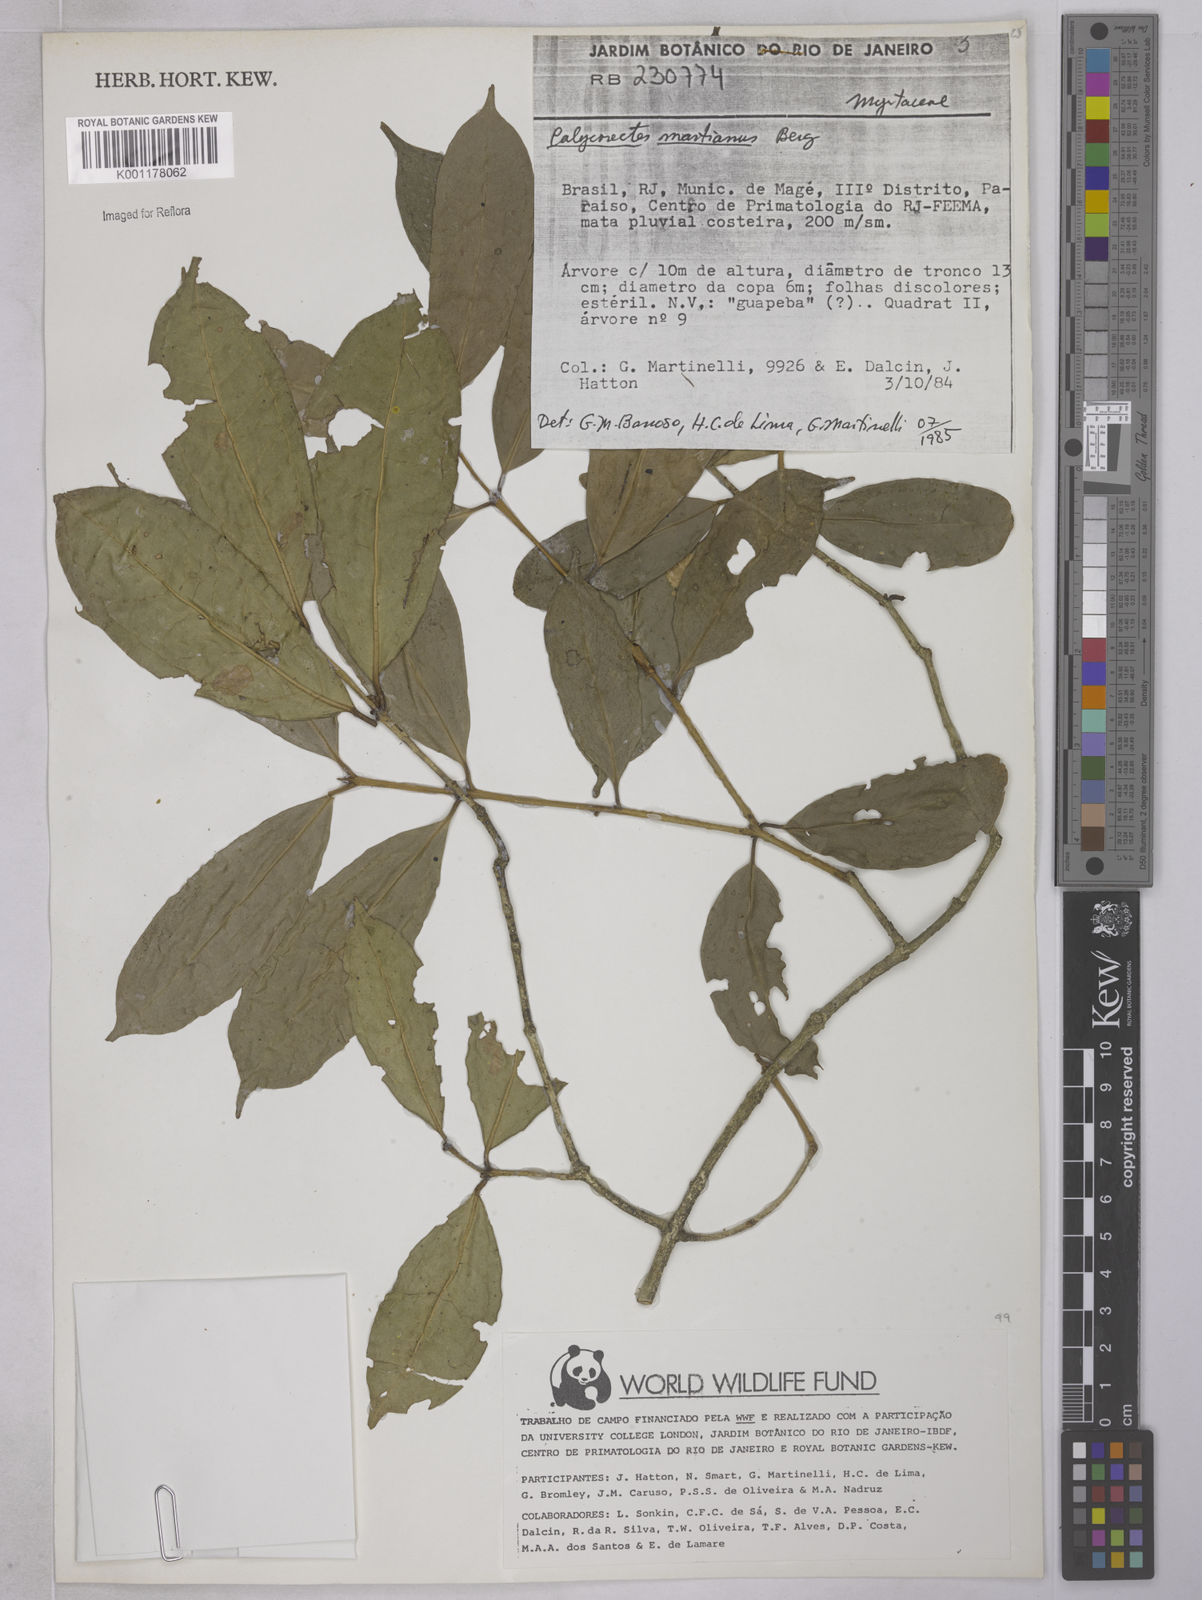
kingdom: Plantae
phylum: Tracheophyta
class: Magnoliopsida
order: Myrtales
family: Myrtaceae
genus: Eugenia
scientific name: Eugenia
